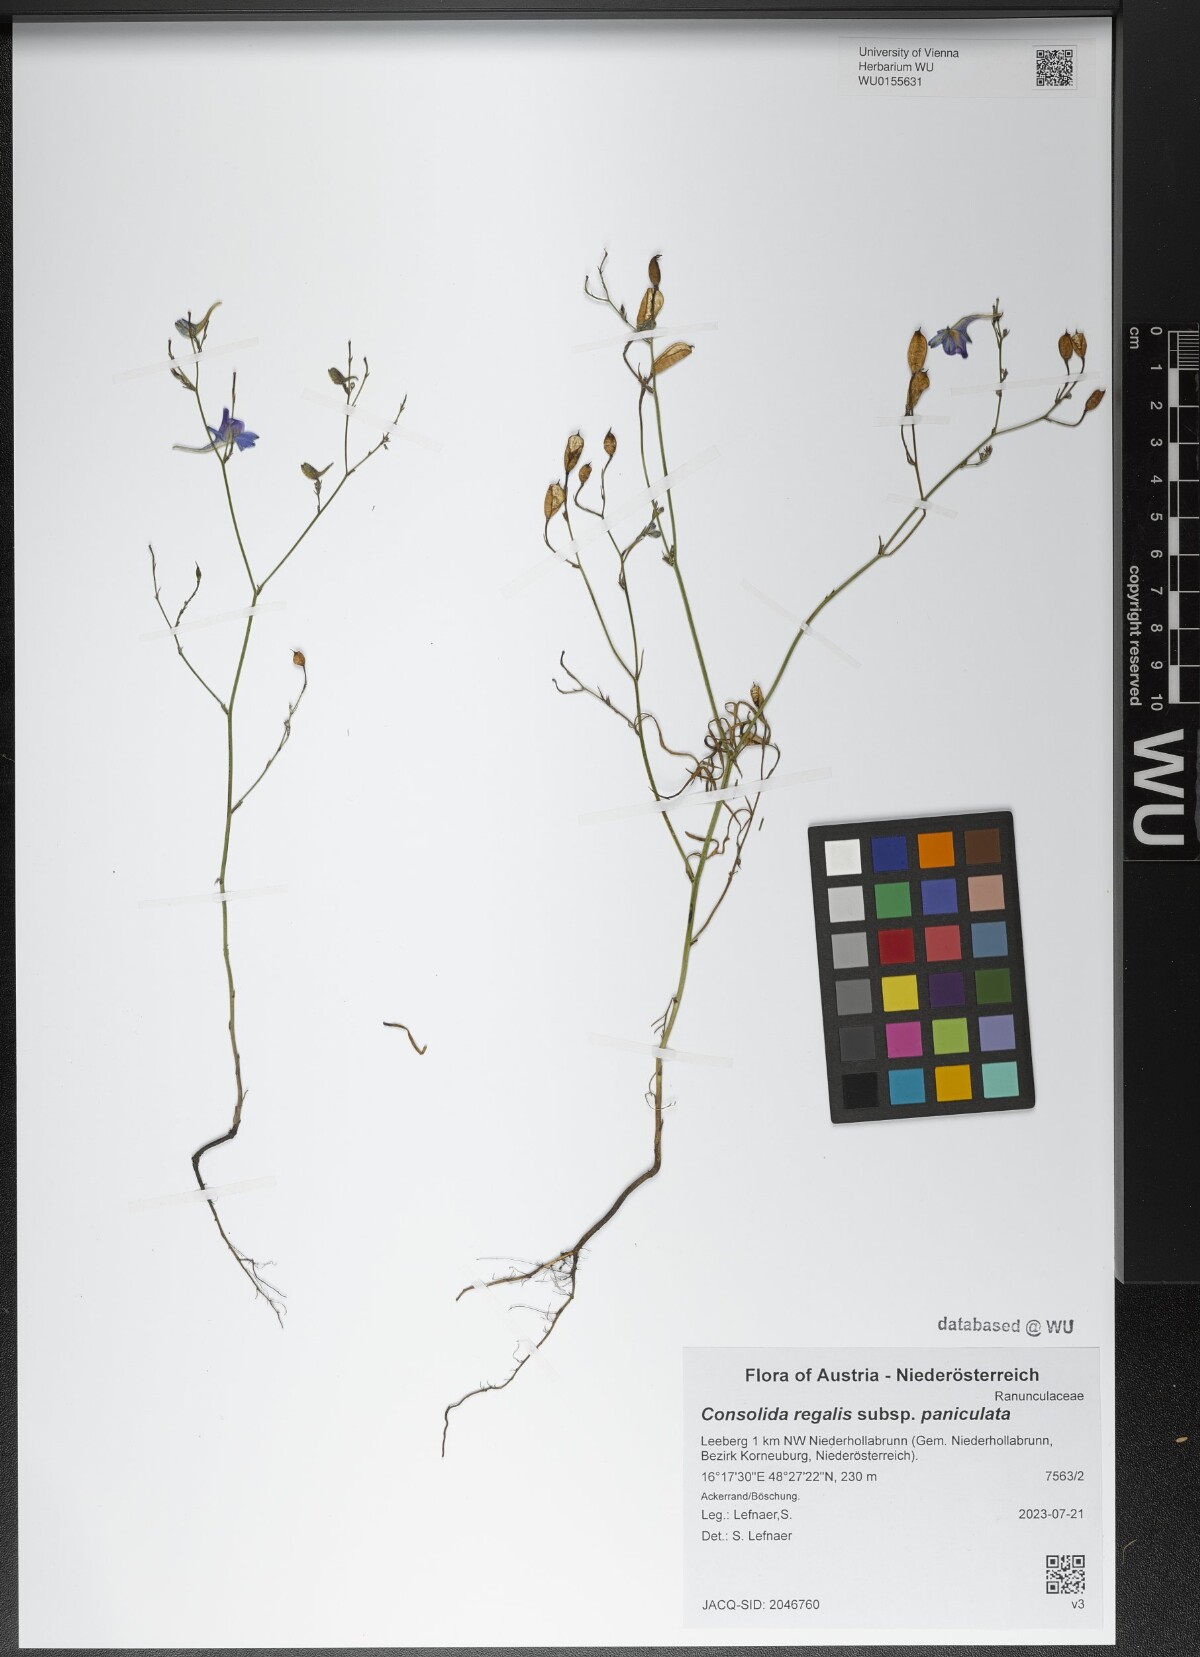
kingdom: Plantae
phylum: Tracheophyta
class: Magnoliopsida
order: Ranunculales
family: Ranunculaceae
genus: Delphinium
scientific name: Delphinium consolida
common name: Branching larkspur
